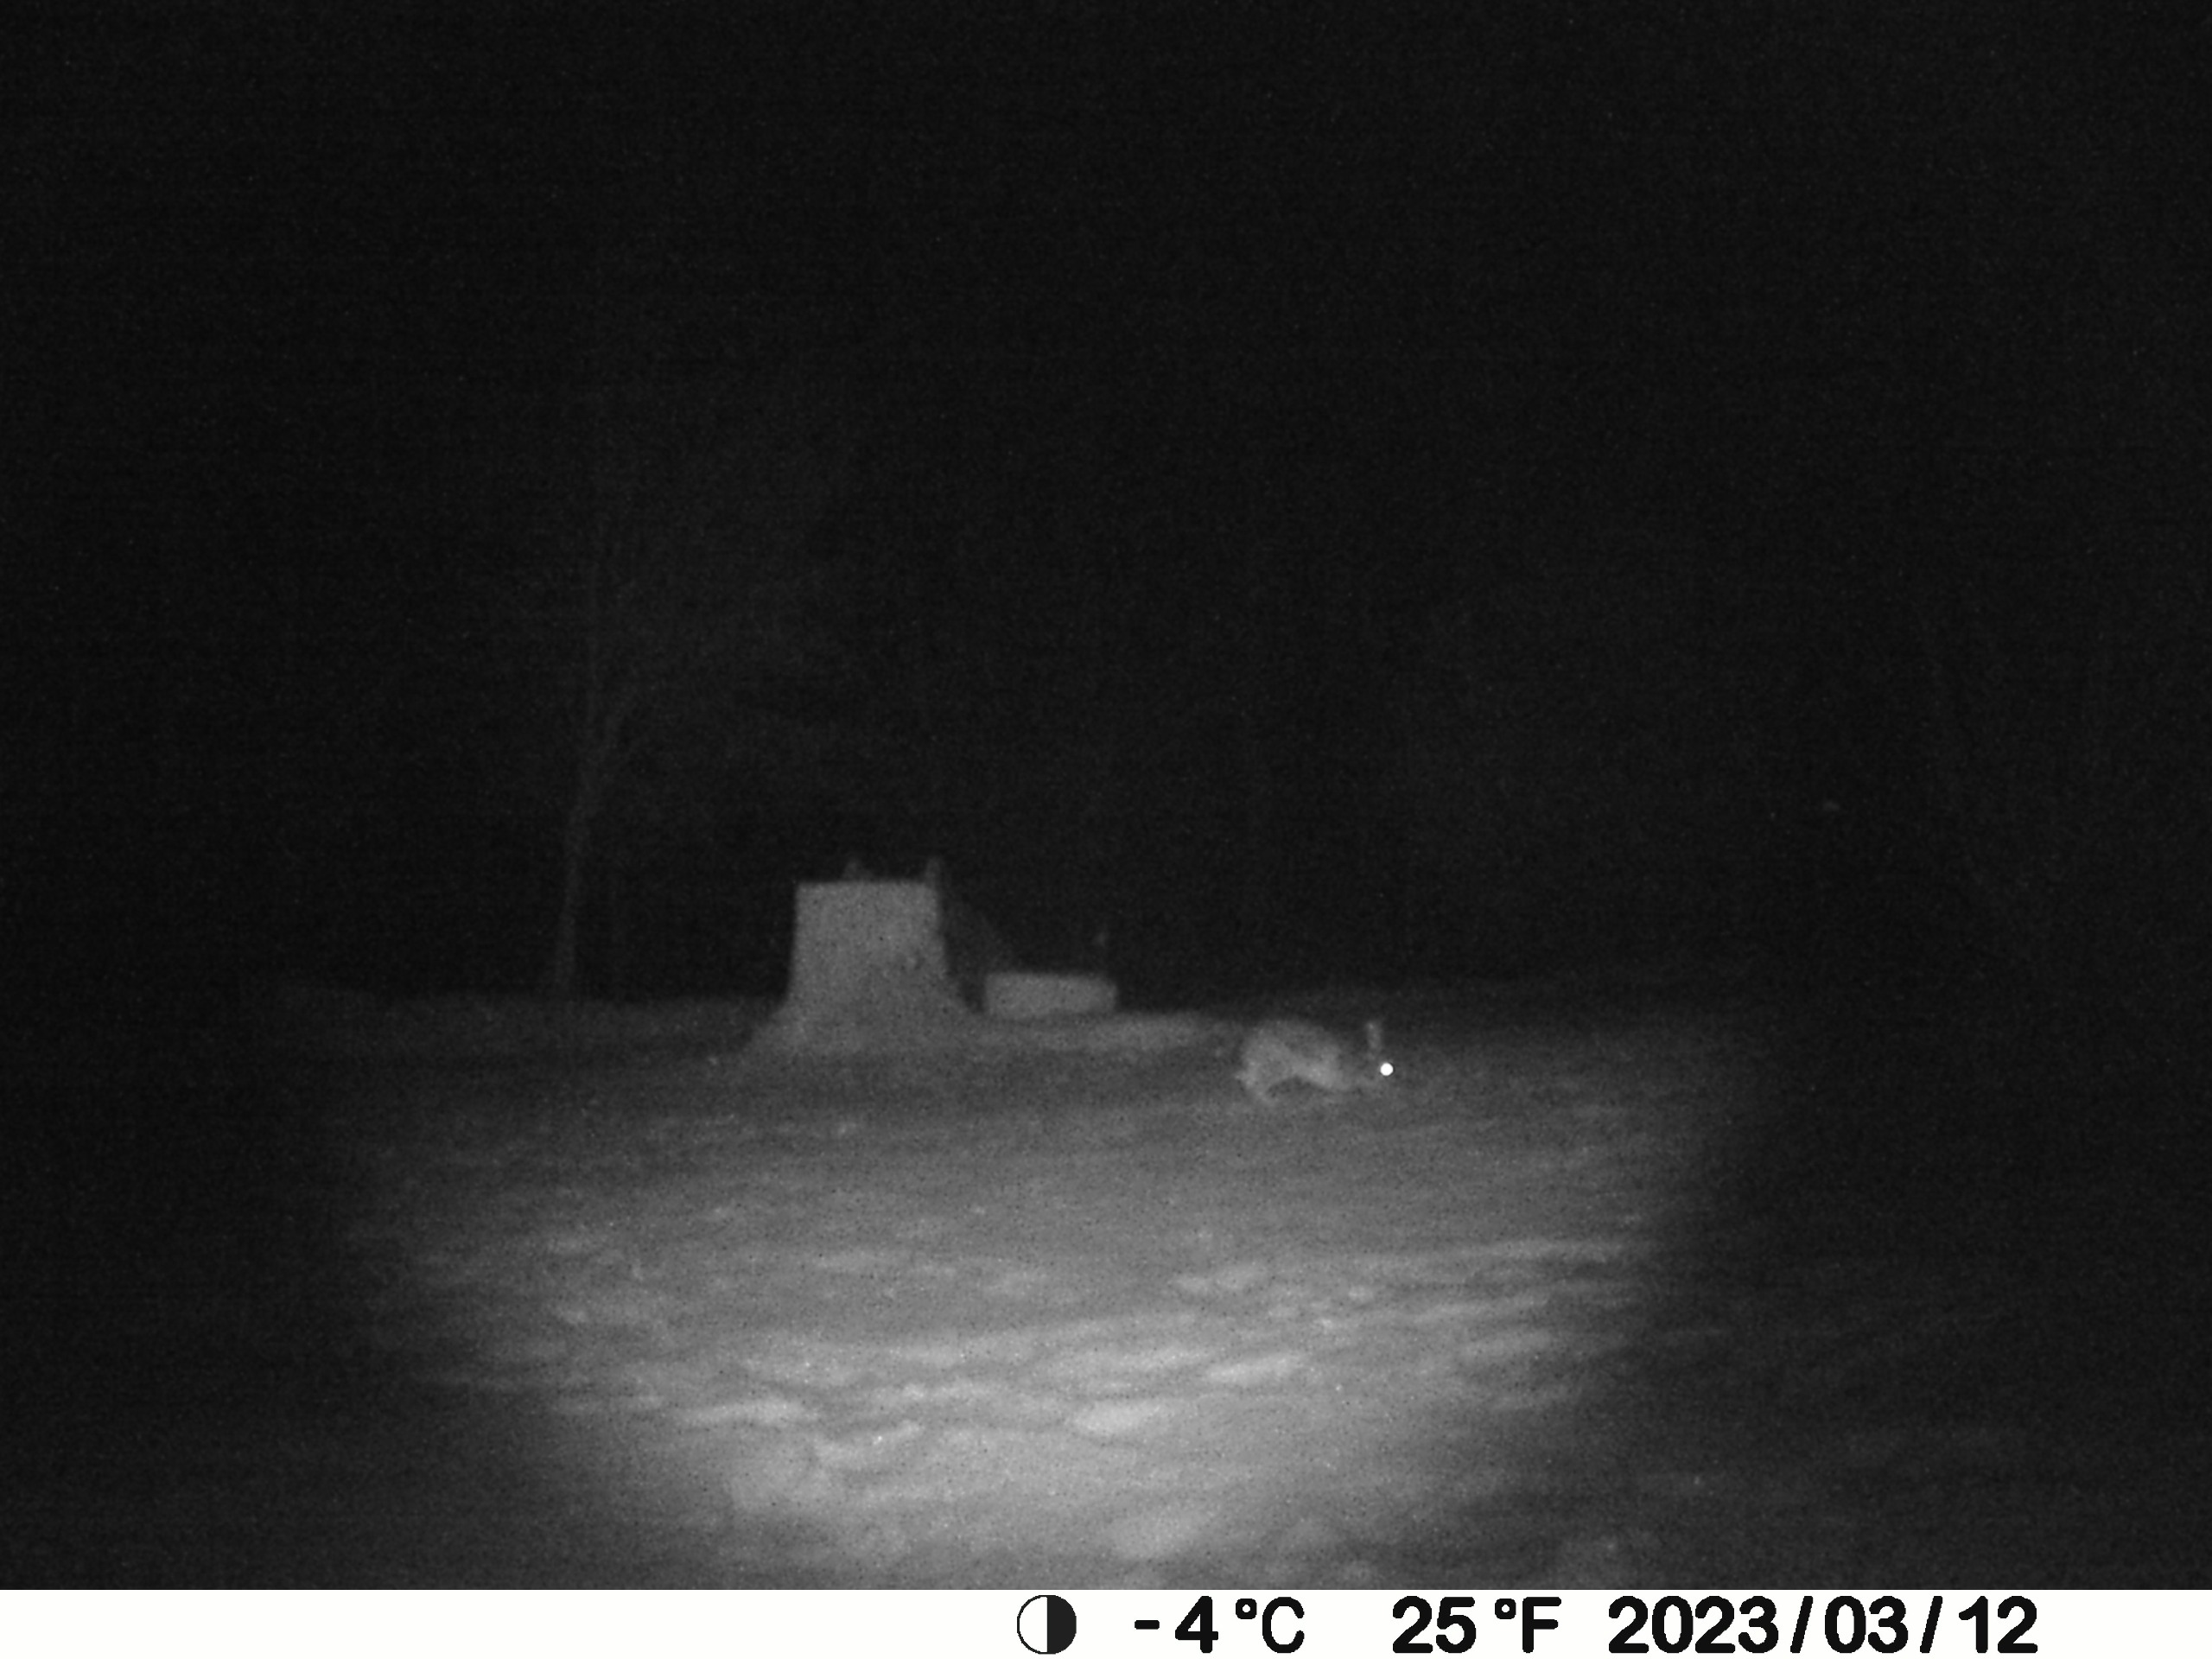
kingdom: Animalia
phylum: Chordata
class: Mammalia
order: Lagomorpha
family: Leporidae
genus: Lepus
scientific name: Lepus europaeus
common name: Hare
